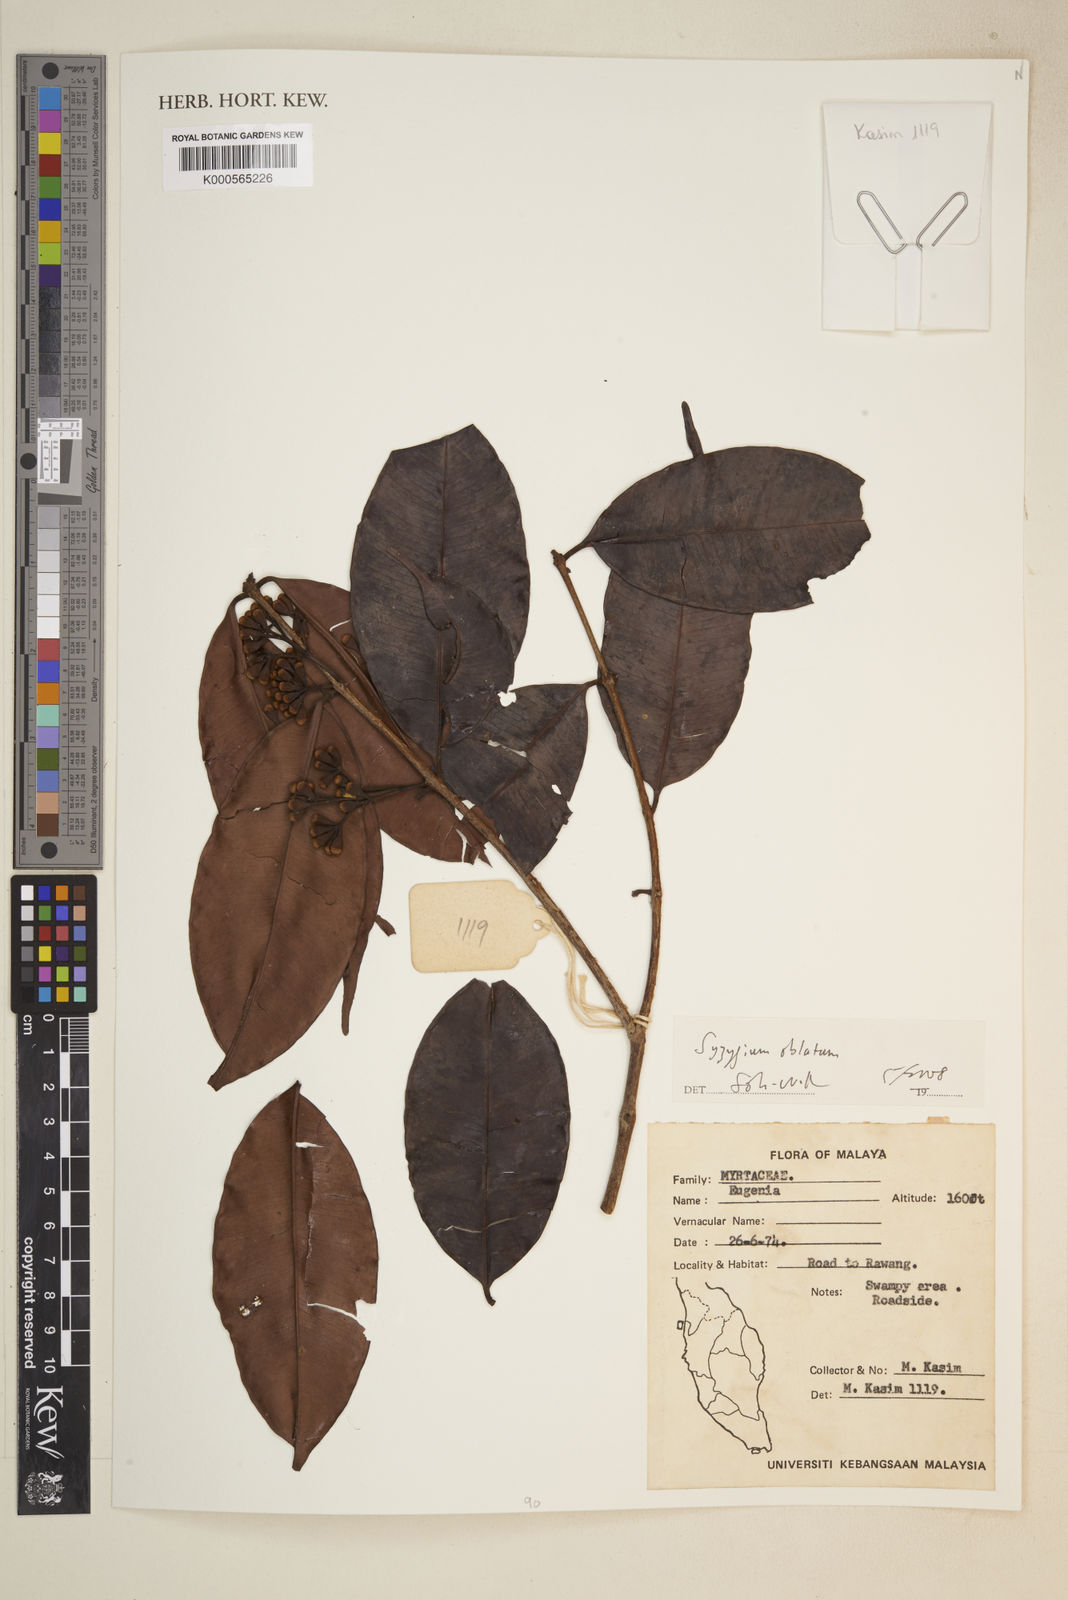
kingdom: Plantae
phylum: Tracheophyta
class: Magnoliopsida
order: Myrtales
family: Myrtaceae
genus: Syzygium
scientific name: Syzygium oblatum
